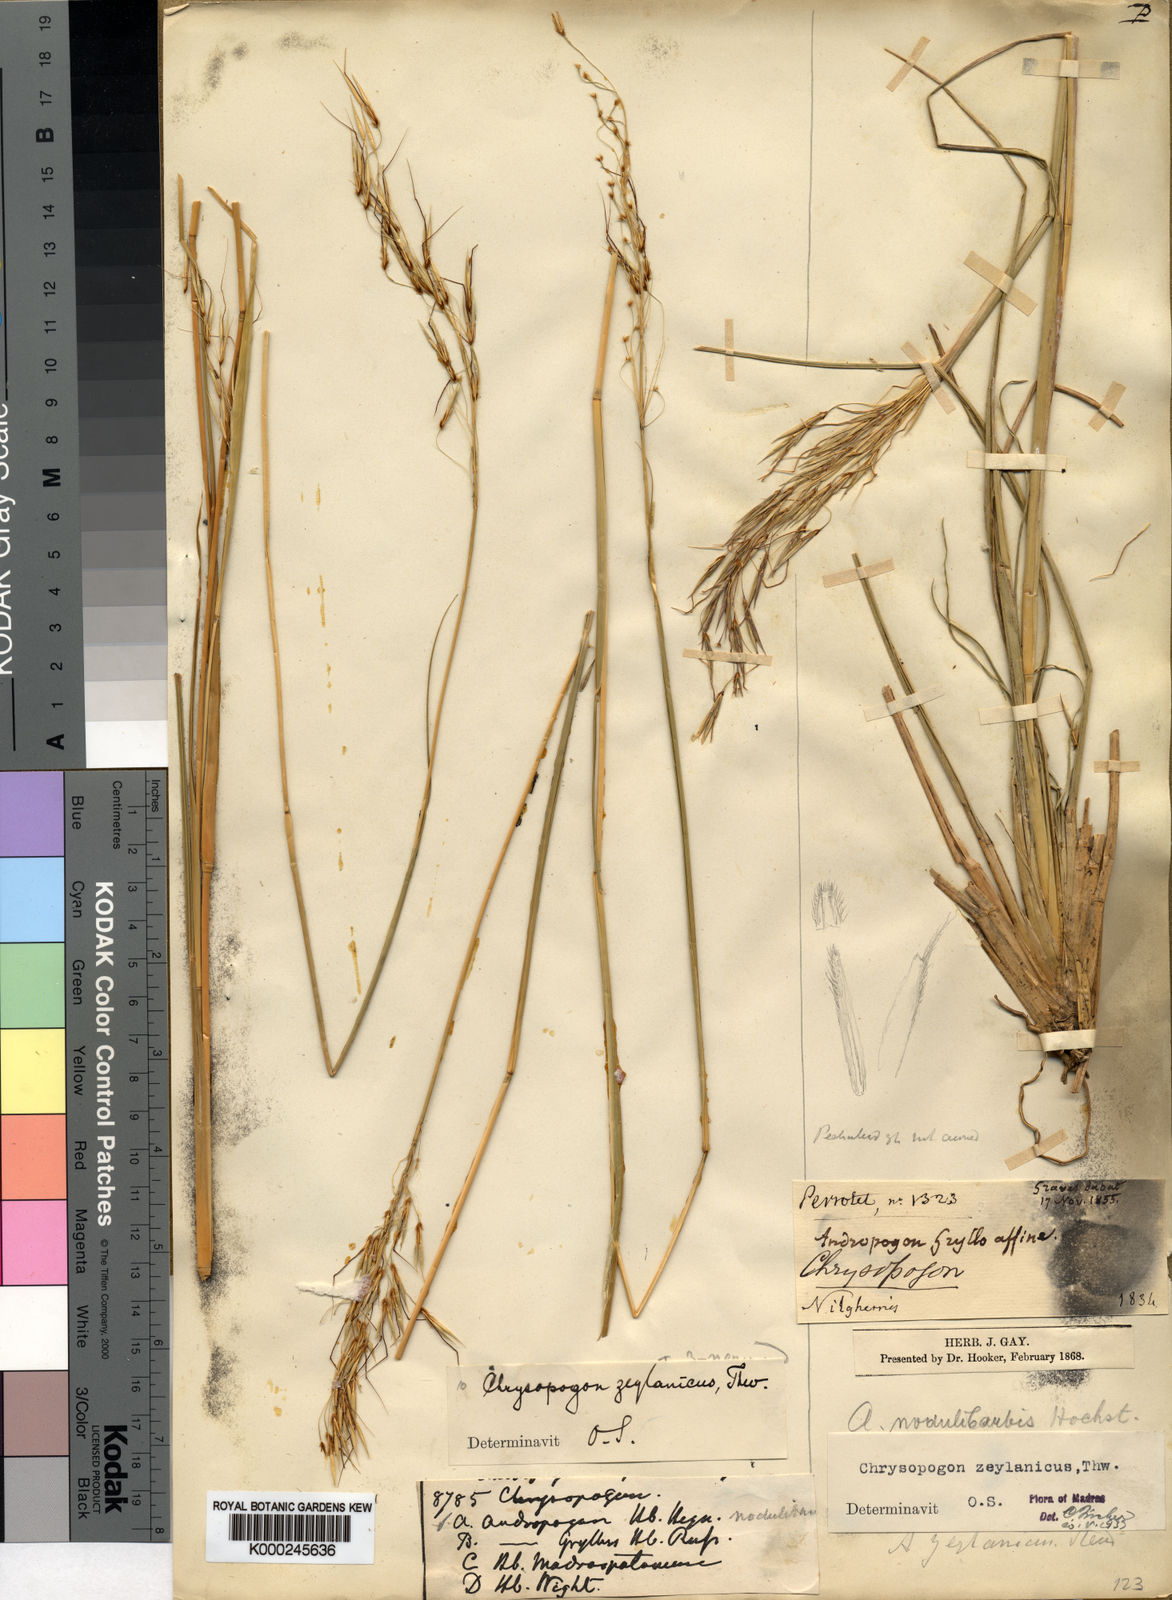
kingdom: Plantae
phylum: Tracheophyta
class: Liliopsida
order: Poales
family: Poaceae
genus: Chrysopogon
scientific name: Chrysopogon nodulibarbis
